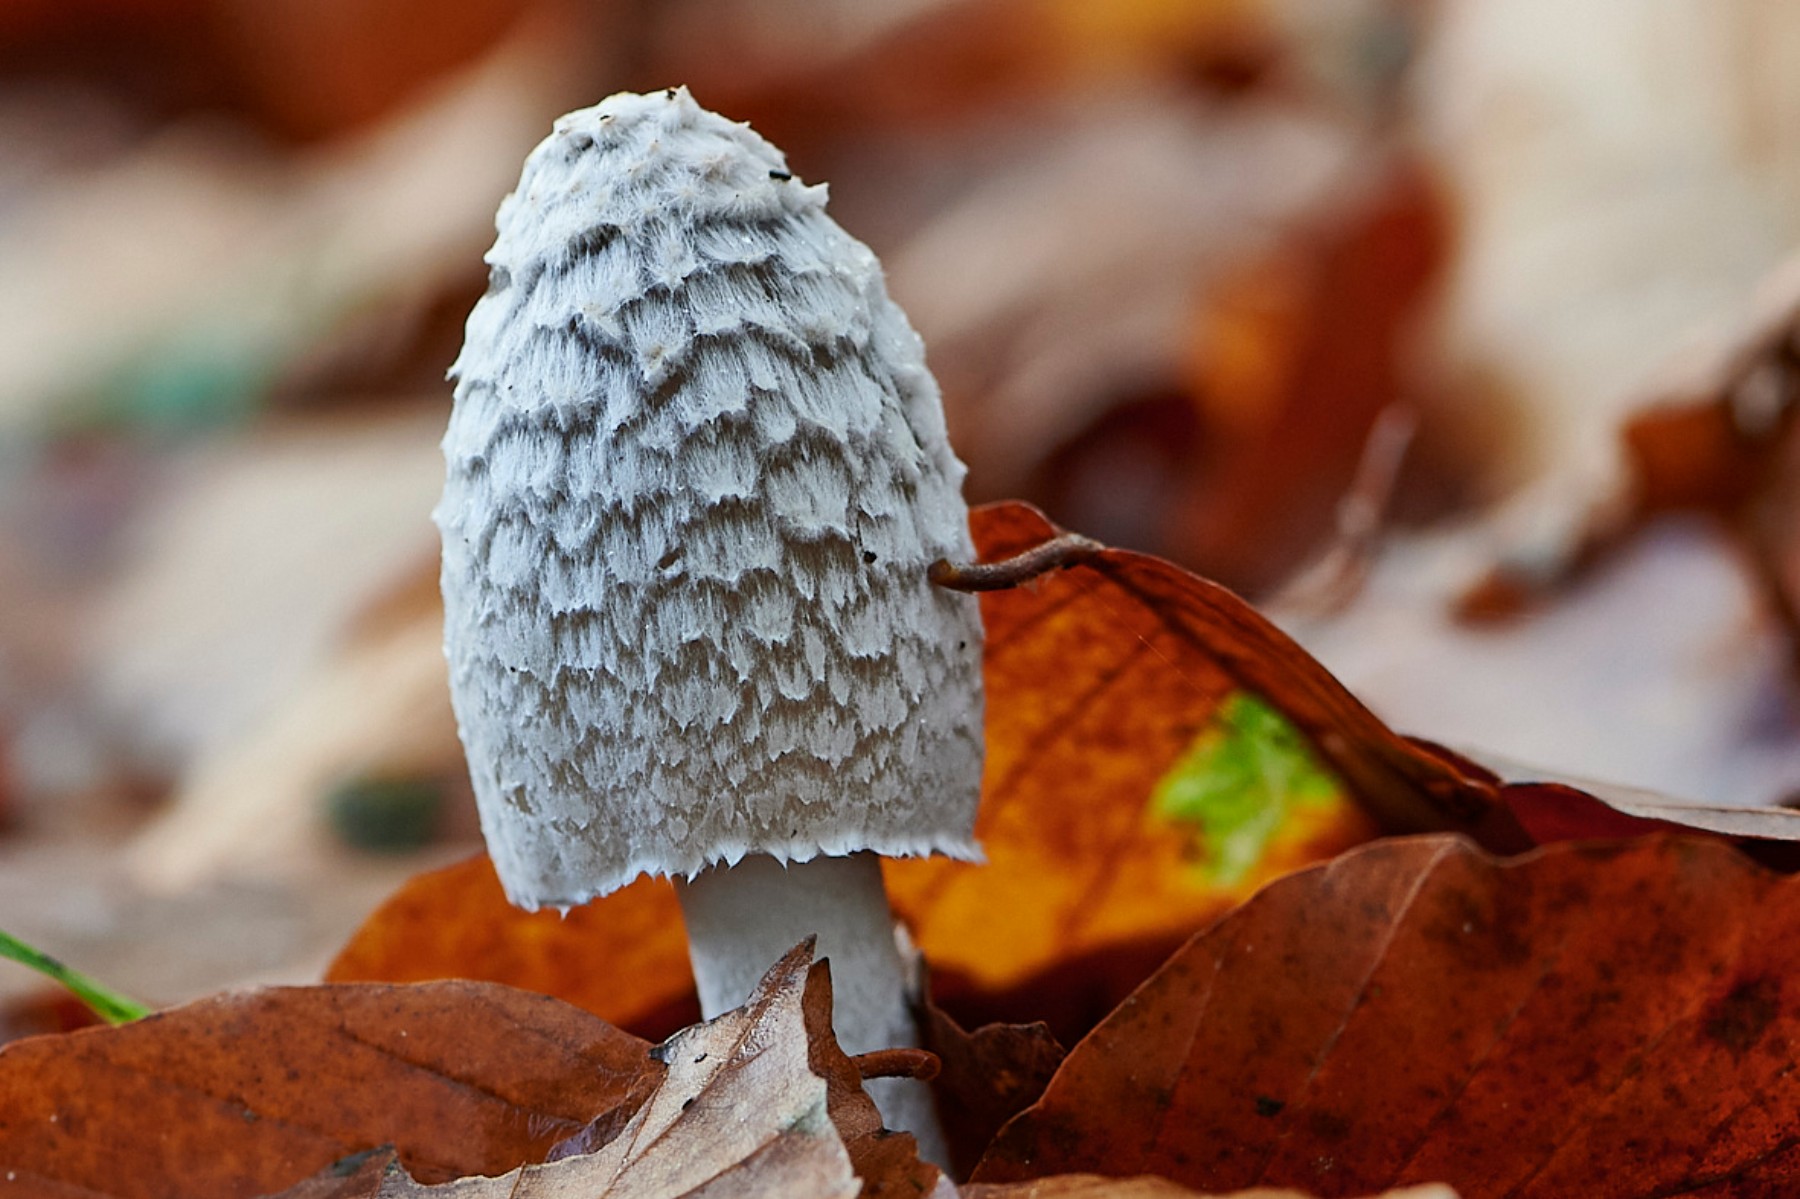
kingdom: Fungi
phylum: Basidiomycota
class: Agaricomycetes
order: Agaricales
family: Psathyrellaceae
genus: Coprinopsis
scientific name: Coprinopsis picacea
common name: skade-blækhat
